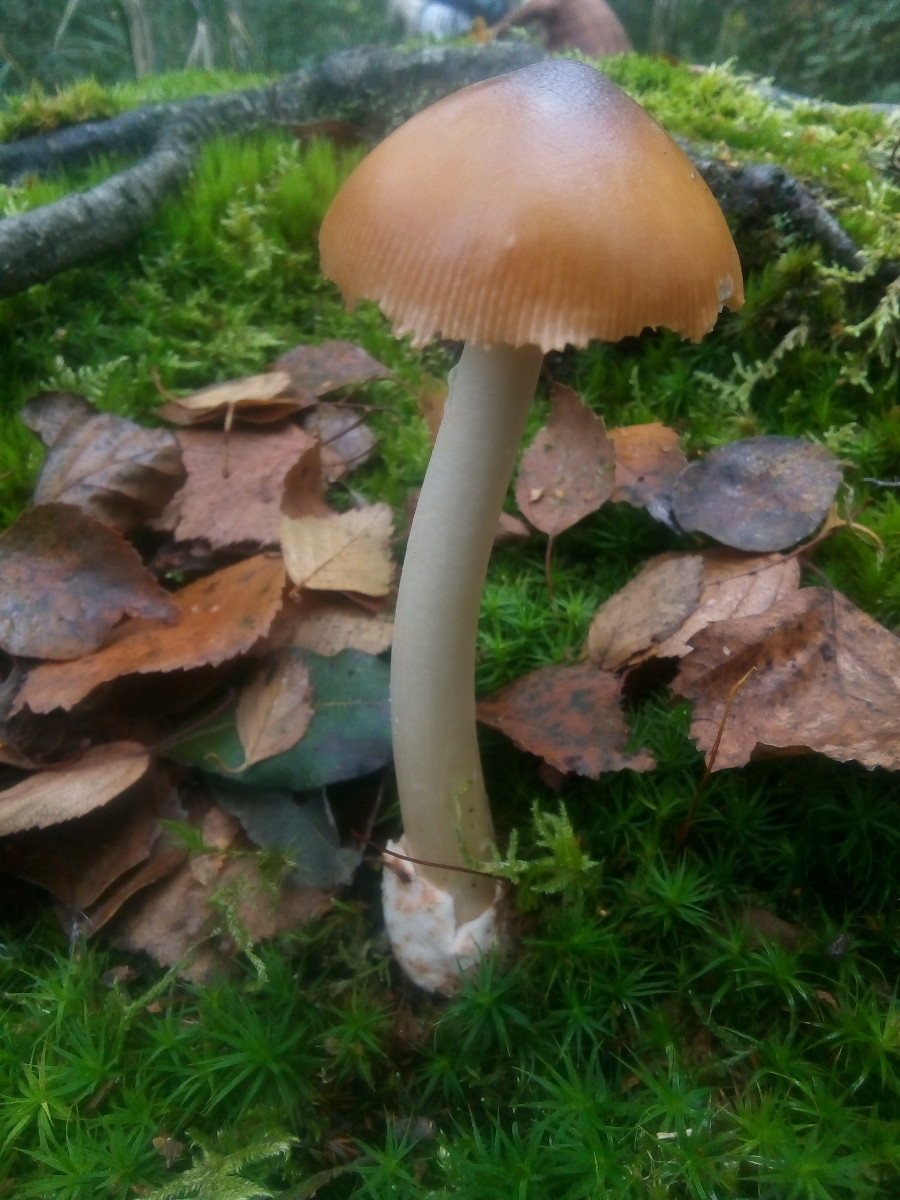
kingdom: Fungi
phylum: Basidiomycota
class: Agaricomycetes
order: Agaricales
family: Amanitaceae
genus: Amanita
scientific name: Amanita fulva
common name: brun kam-fluesvamp
